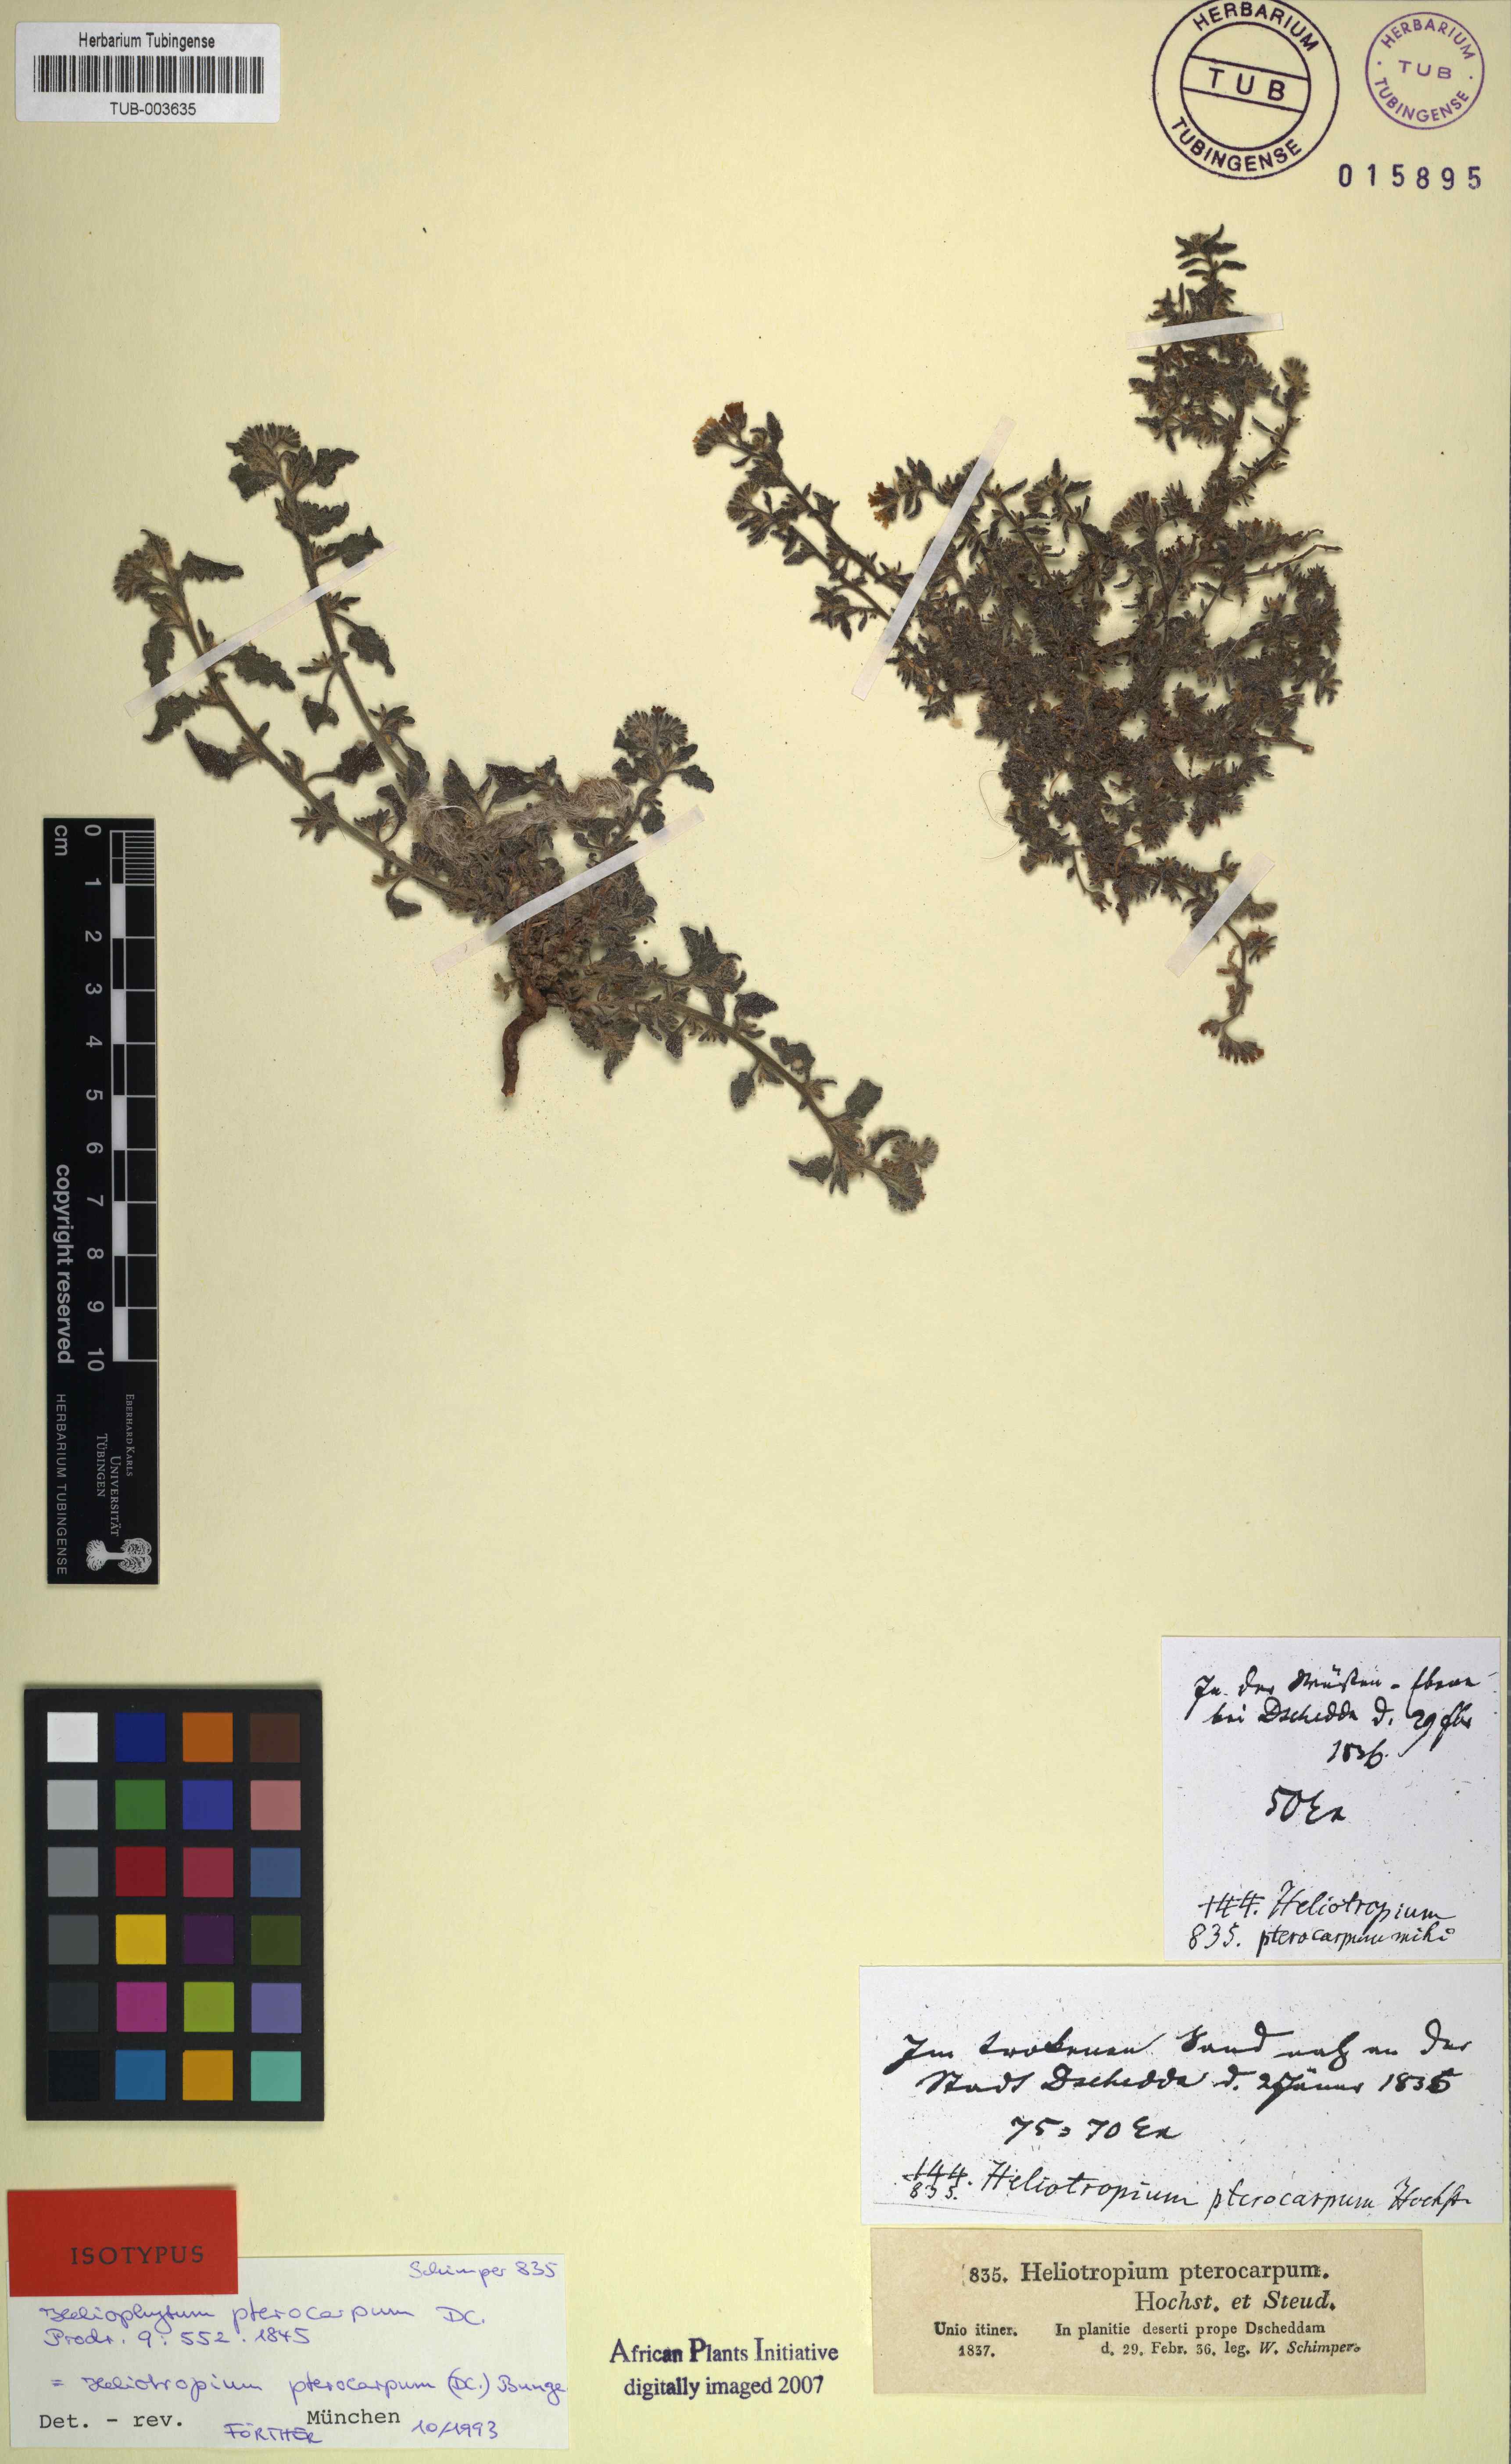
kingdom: Plantae
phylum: Tracheophyta
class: Magnoliopsida
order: Boraginales
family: Heliotropiaceae
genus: Heliotropium
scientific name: Heliotropium pterocarpum
